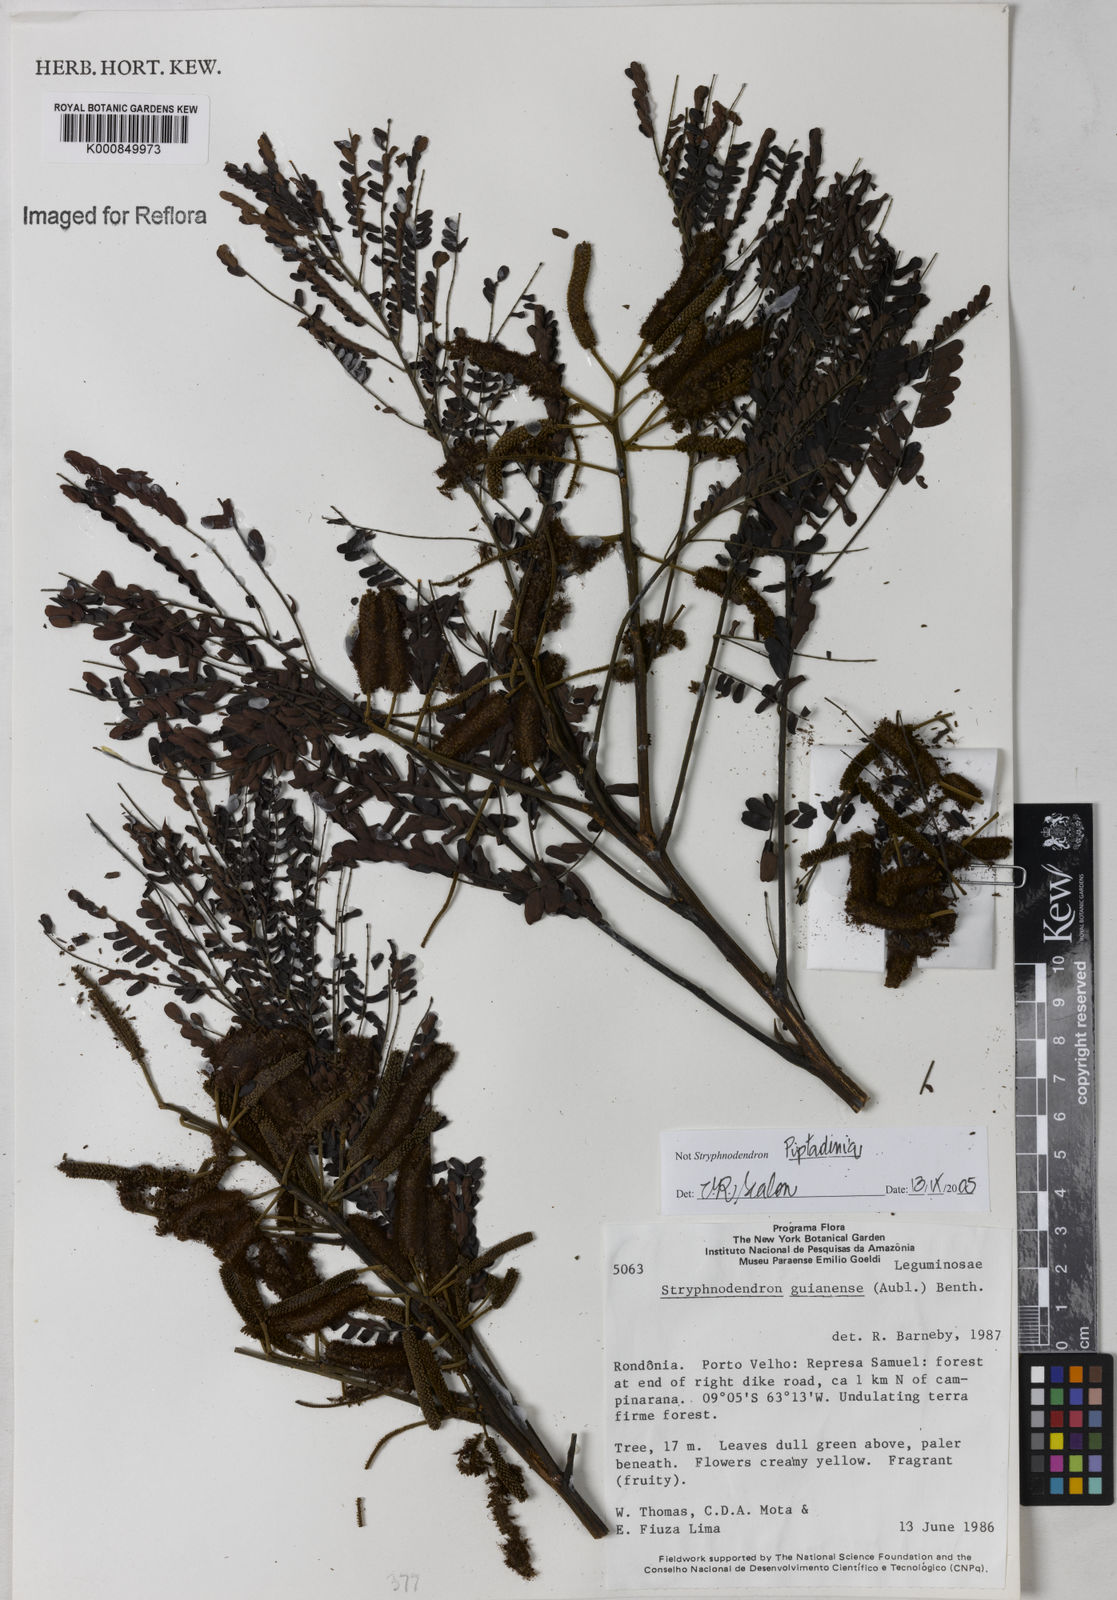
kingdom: Plantae
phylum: Tracheophyta
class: Magnoliopsida
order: Fabales
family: Fabaceae
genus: Piptadenia
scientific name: Piptadenia
